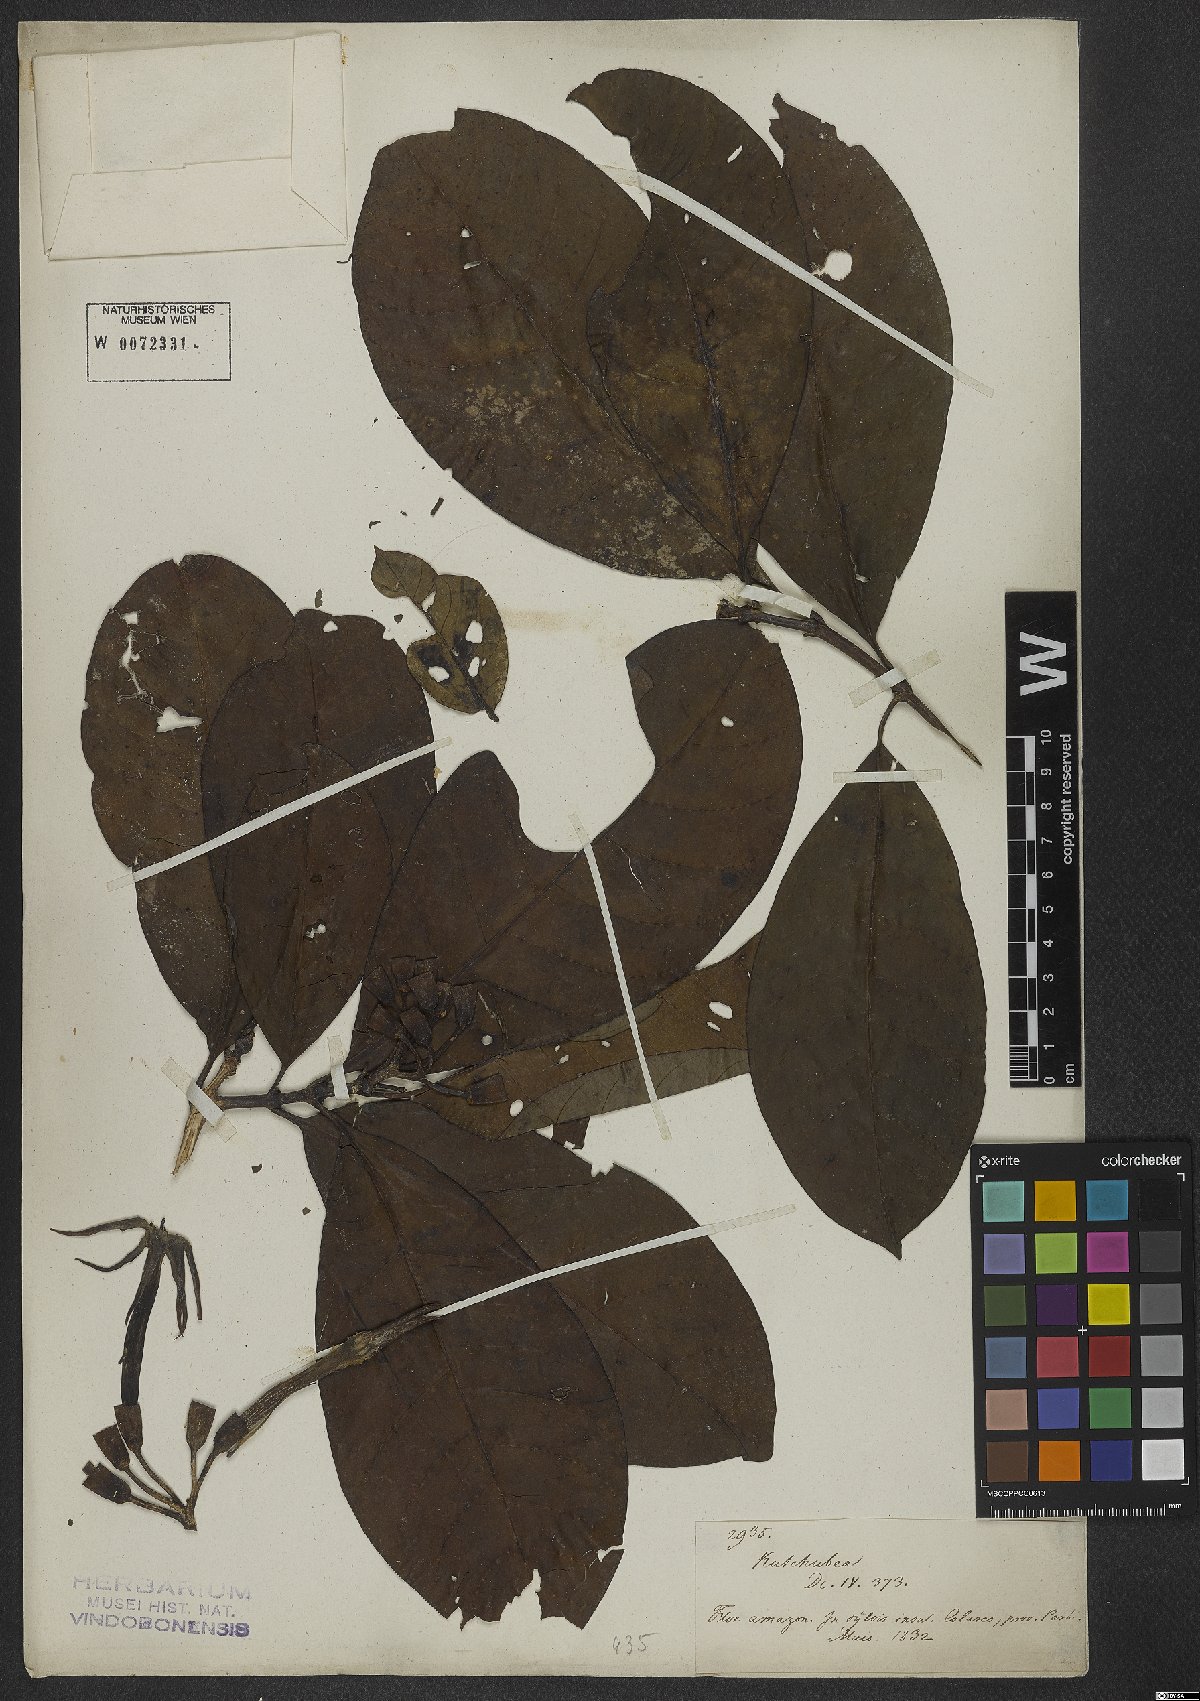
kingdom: Plantae
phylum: Tracheophyta
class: Magnoliopsida
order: Gentianales
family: Rubiaceae
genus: Kutchubaea
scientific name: Kutchubaea semisericea
